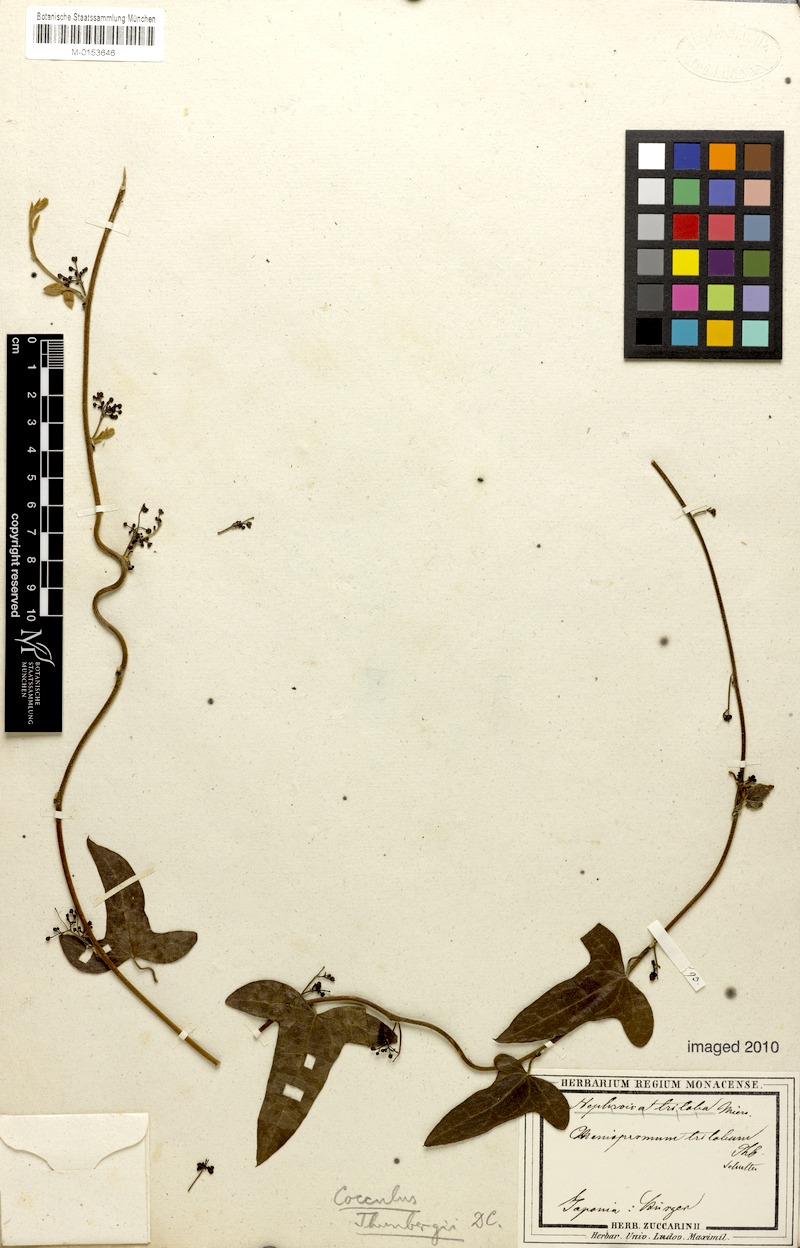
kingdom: Plantae
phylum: Tracheophyta
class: Magnoliopsida
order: Ranunculales
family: Menispermaceae
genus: Cocculus
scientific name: Cocculus orbiculatus
